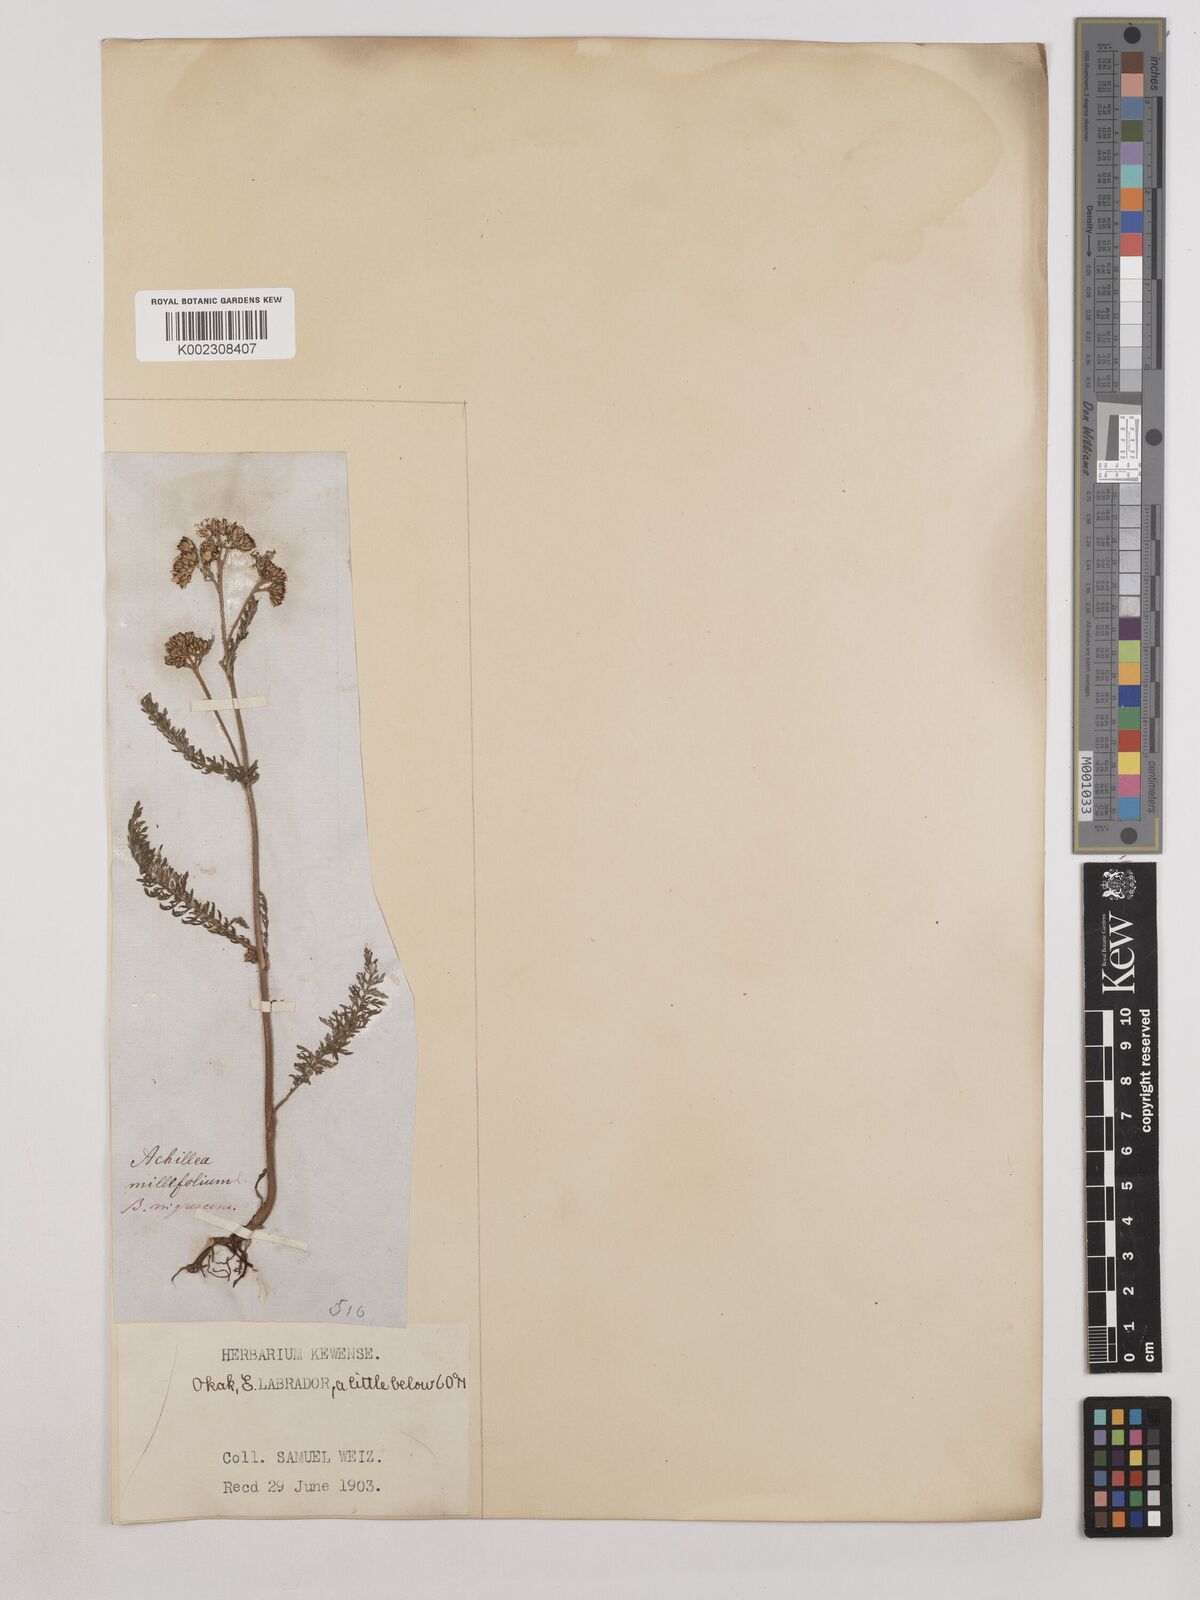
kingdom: Plantae
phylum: Tracheophyta
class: Magnoliopsida
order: Asterales
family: Asteraceae
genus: Achillea
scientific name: Achillea millefolium
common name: Yarrow
